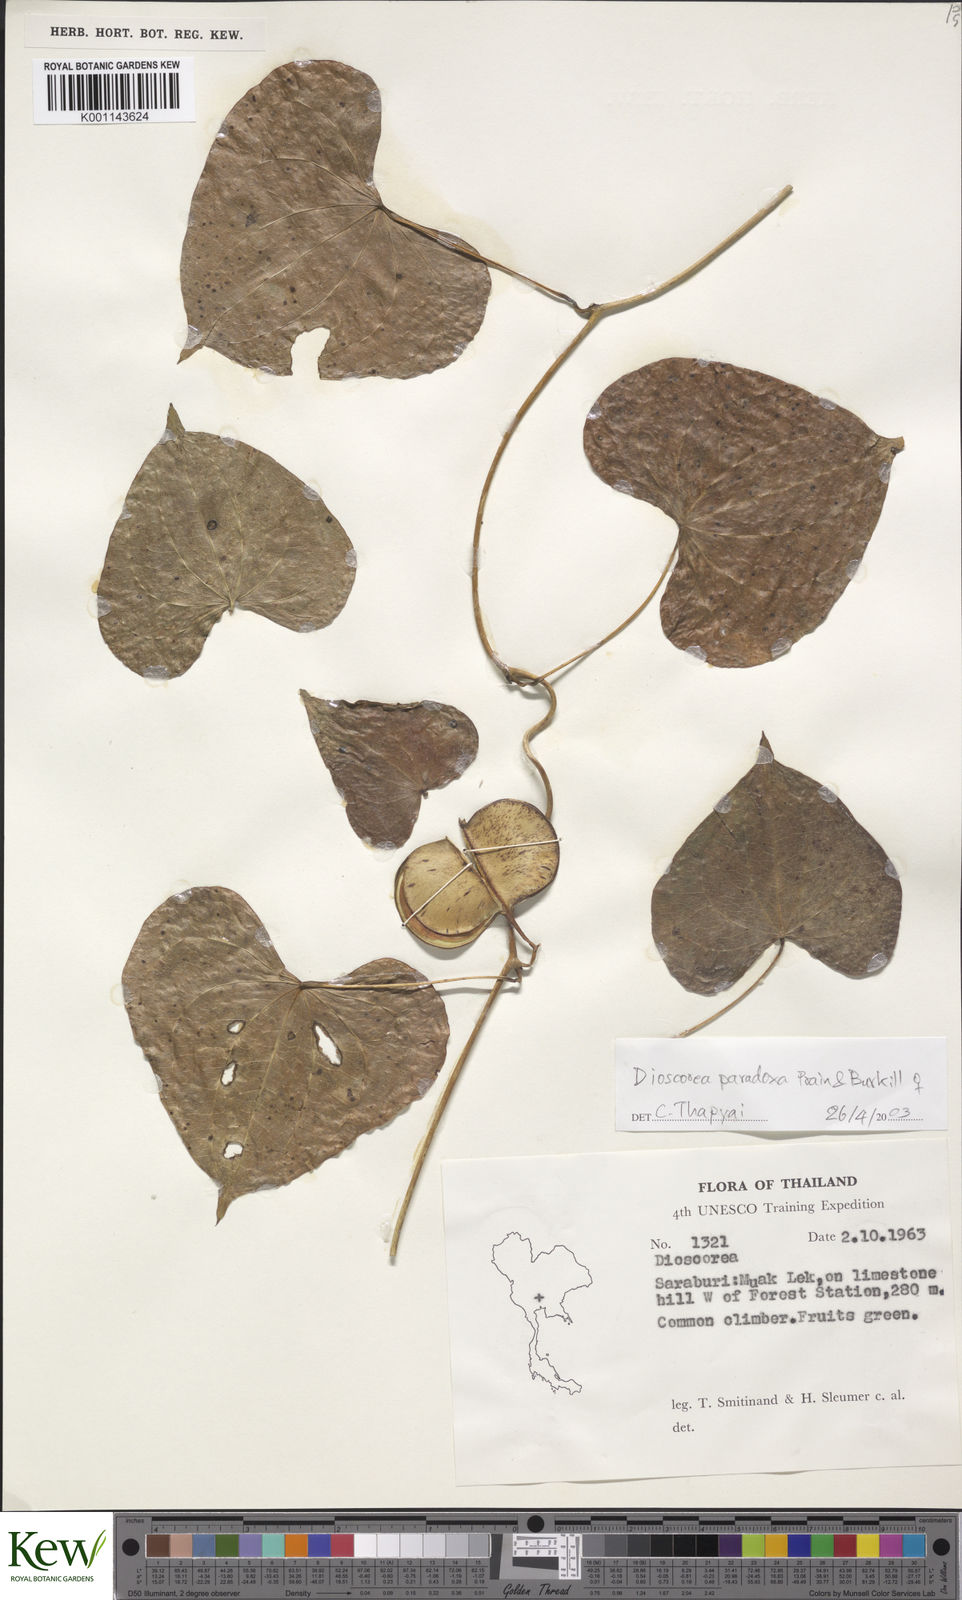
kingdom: Plantae
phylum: Tracheophyta
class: Liliopsida
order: Dioscoreales
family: Dioscoreaceae
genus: Dioscorea
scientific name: Dioscorea paradoxa
